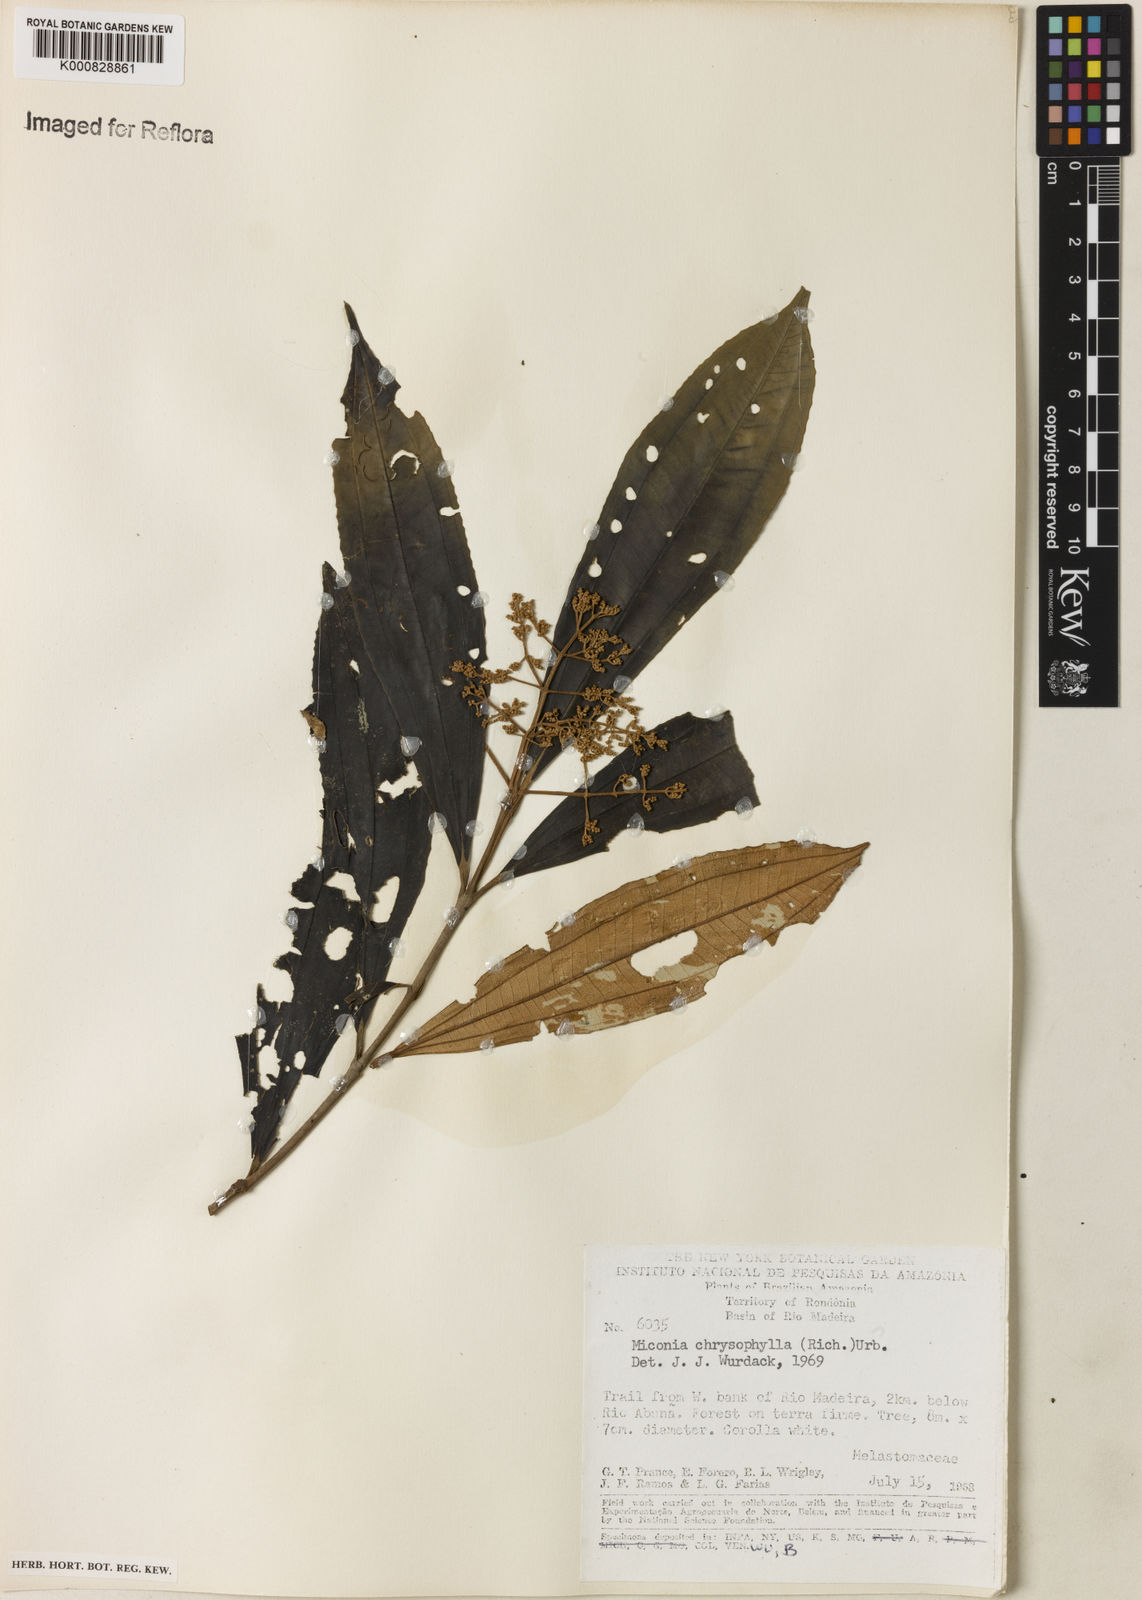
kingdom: Plantae
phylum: Tracheophyta
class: Magnoliopsida
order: Myrtales
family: Melastomataceae
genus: Miconia
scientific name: Miconia chrysophylla
